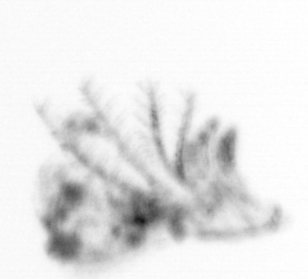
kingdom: Animalia
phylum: Arthropoda
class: Maxillopoda
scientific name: Maxillopoda
